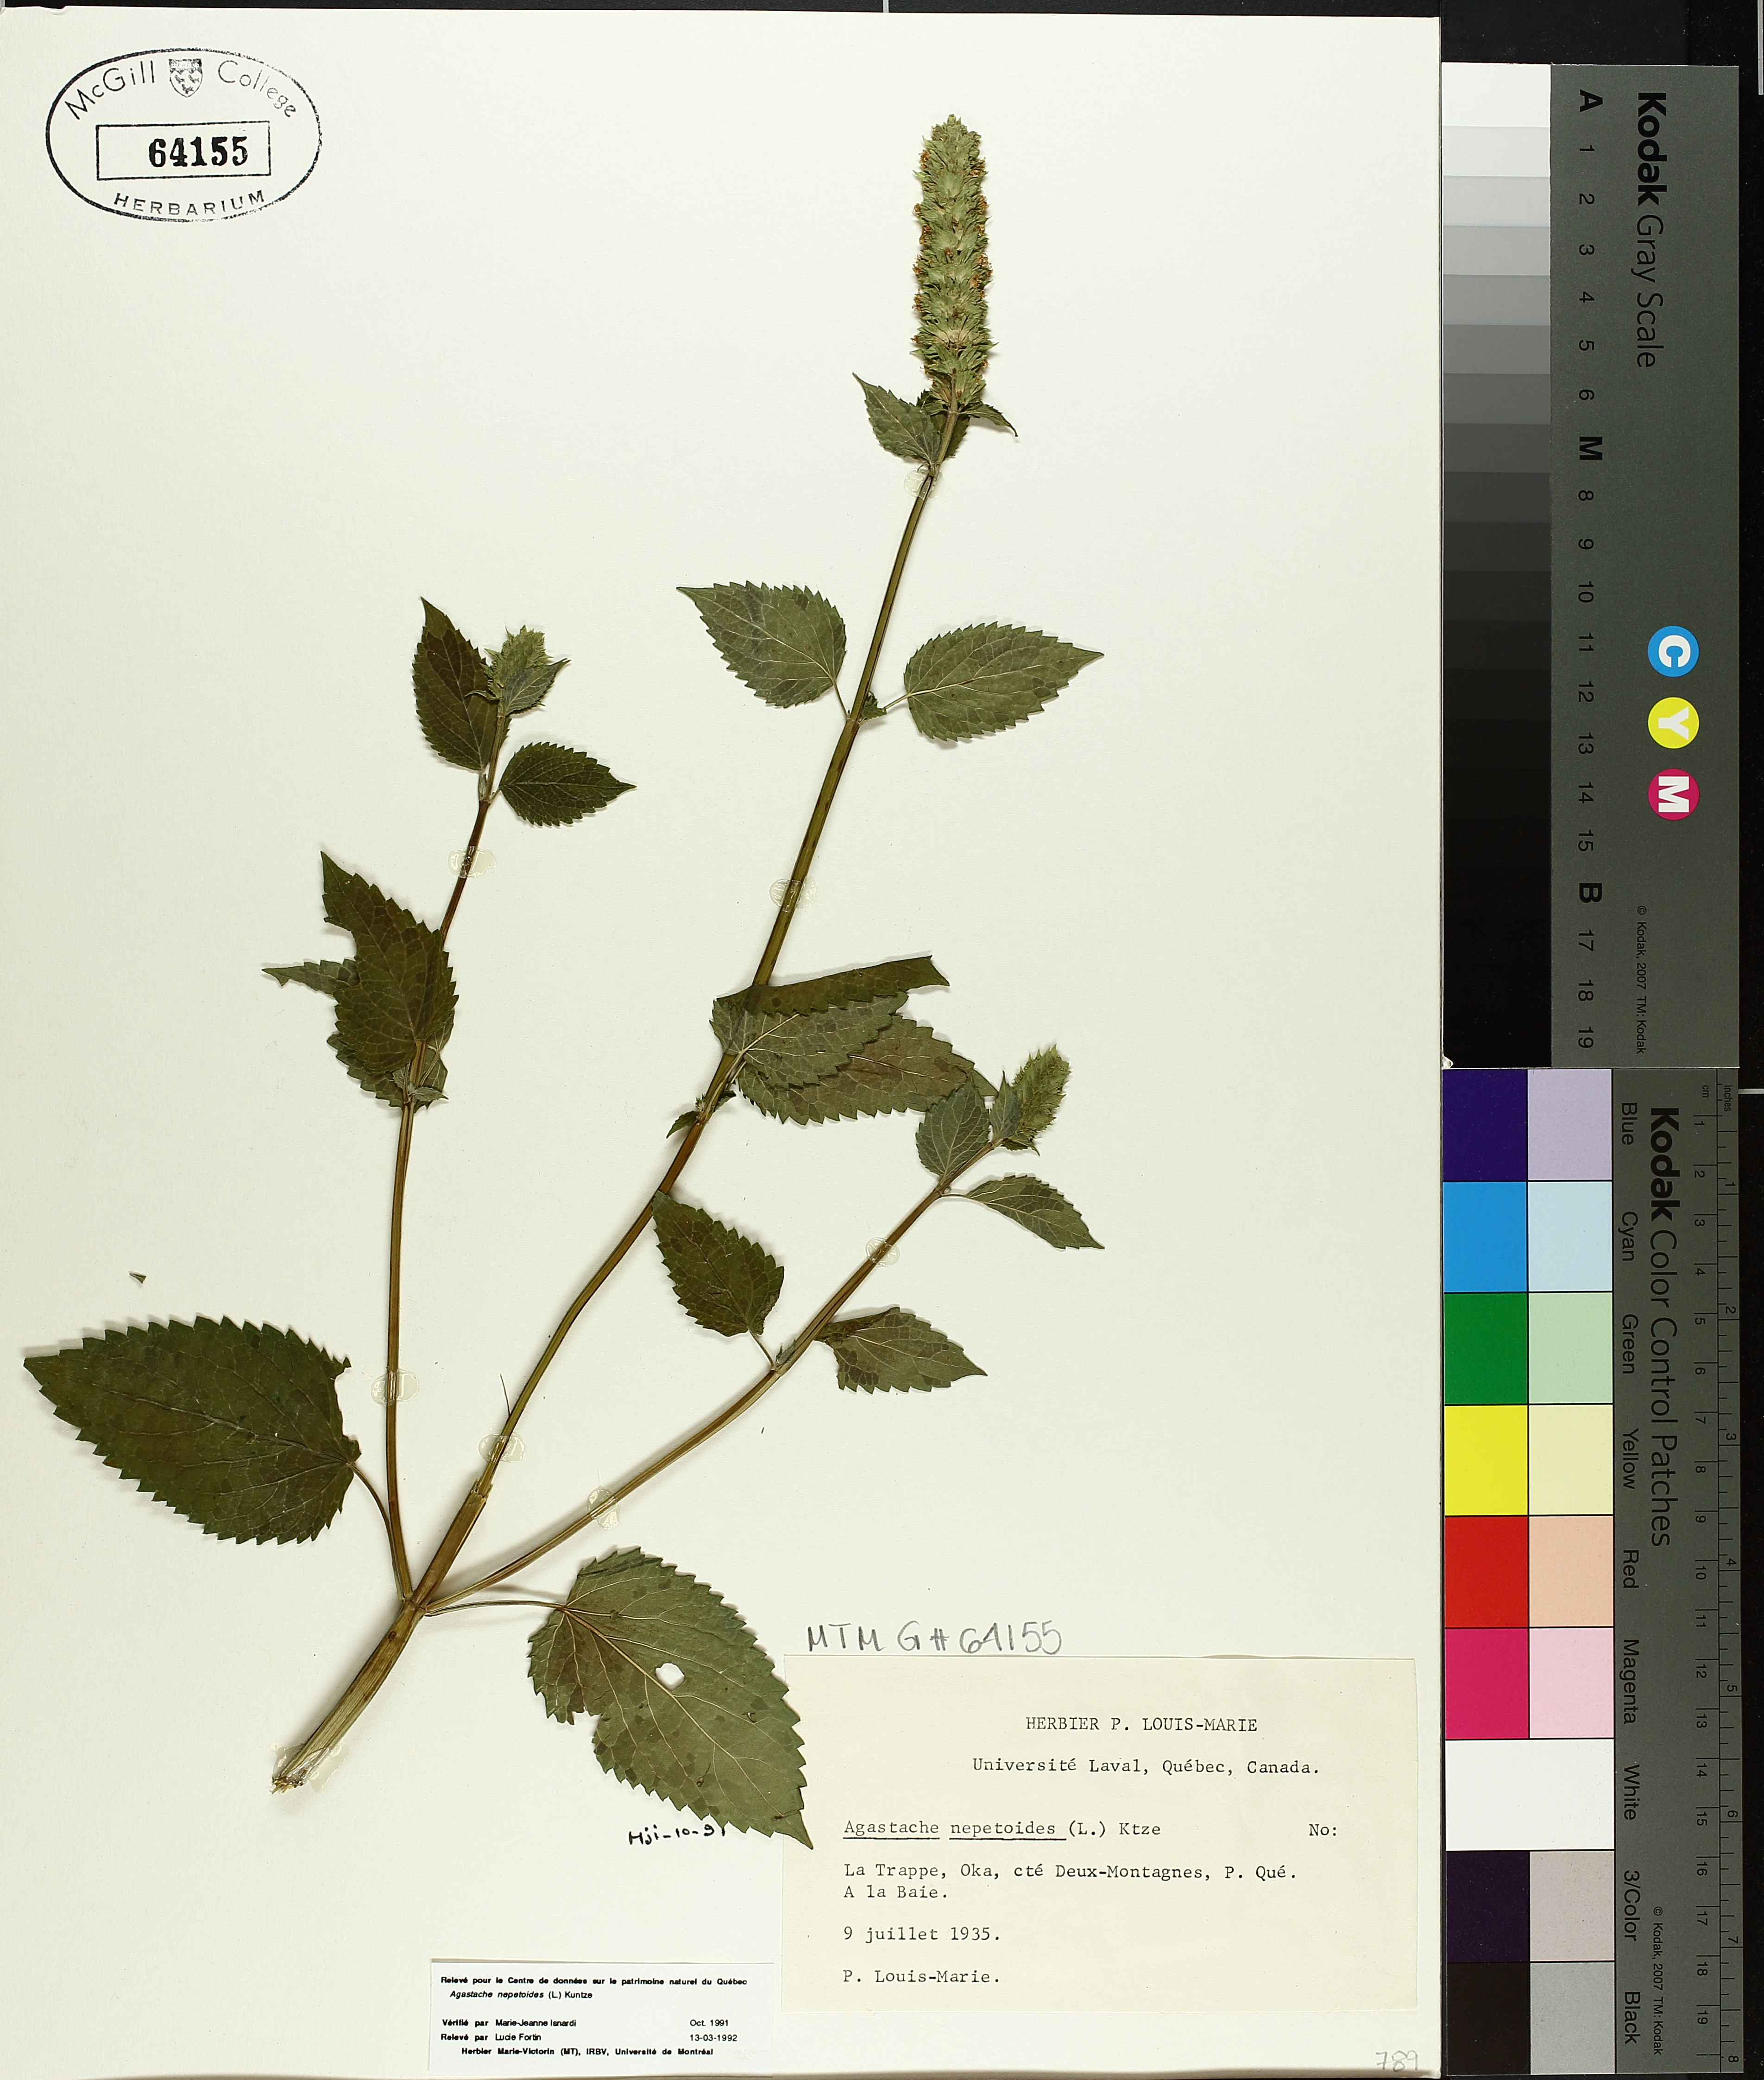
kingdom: Plantae
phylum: Tracheophyta
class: Magnoliopsida
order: Lamiales
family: Lamiaceae
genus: Agastache
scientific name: Agastache nepetoides
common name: Catnip giant hyssop
